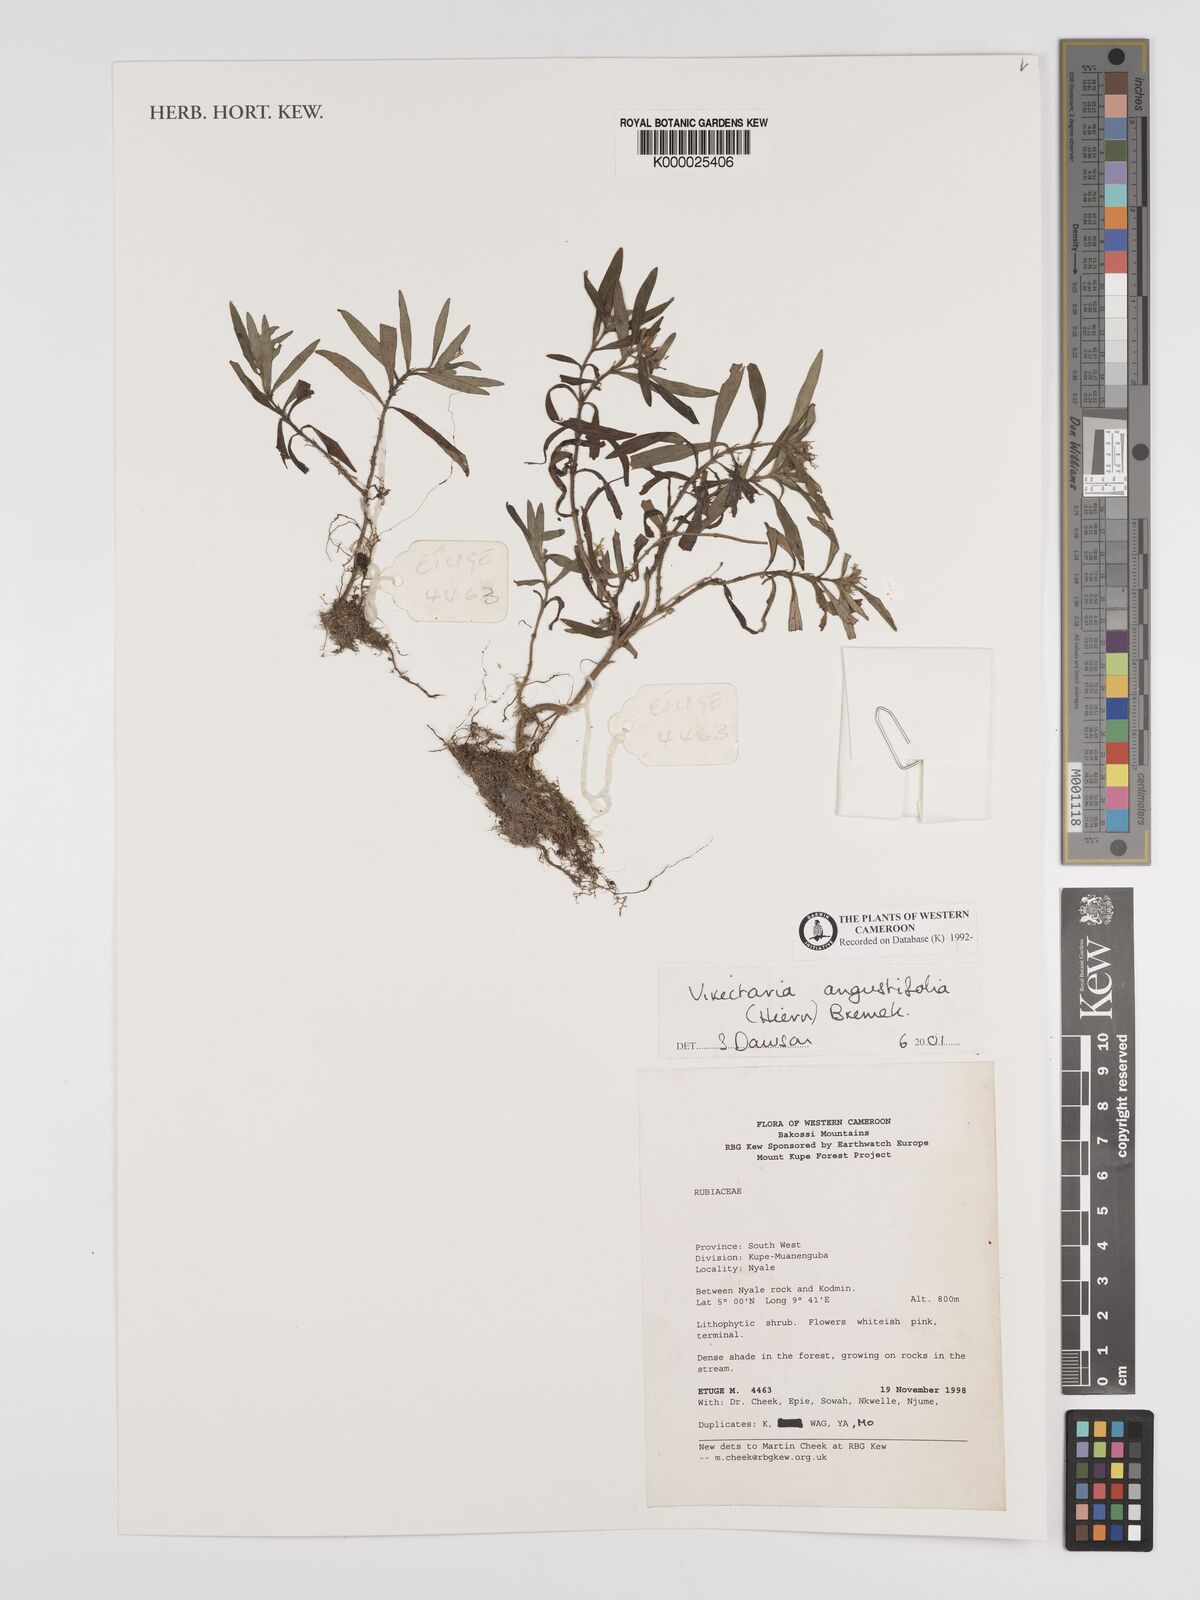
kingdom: Plantae
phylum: Tracheophyta
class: Magnoliopsida
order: Gentianales
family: Rubiaceae
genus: Virectaria
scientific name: Virectaria angustifolia
